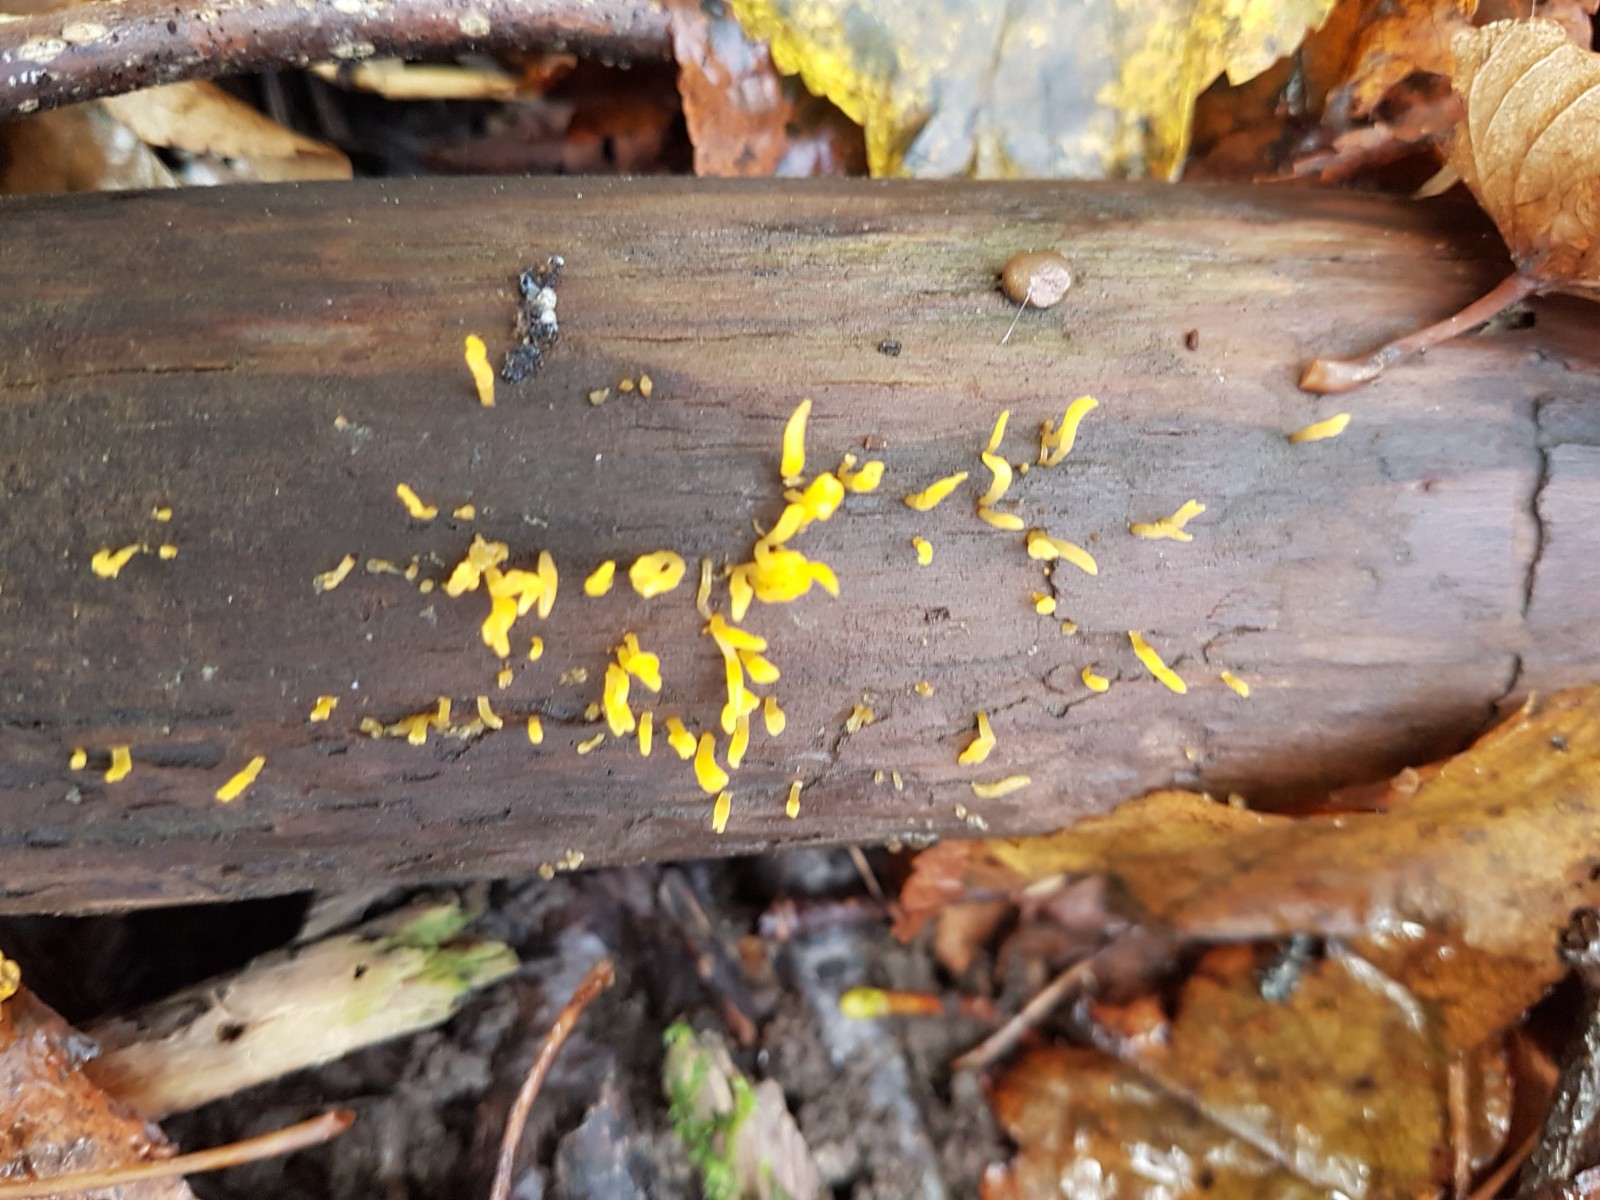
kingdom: Fungi
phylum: Basidiomycota
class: Dacrymycetes
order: Dacrymycetales
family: Dacrymycetaceae
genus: Calocera
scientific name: Calocera cornea
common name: liden guldgaffel
